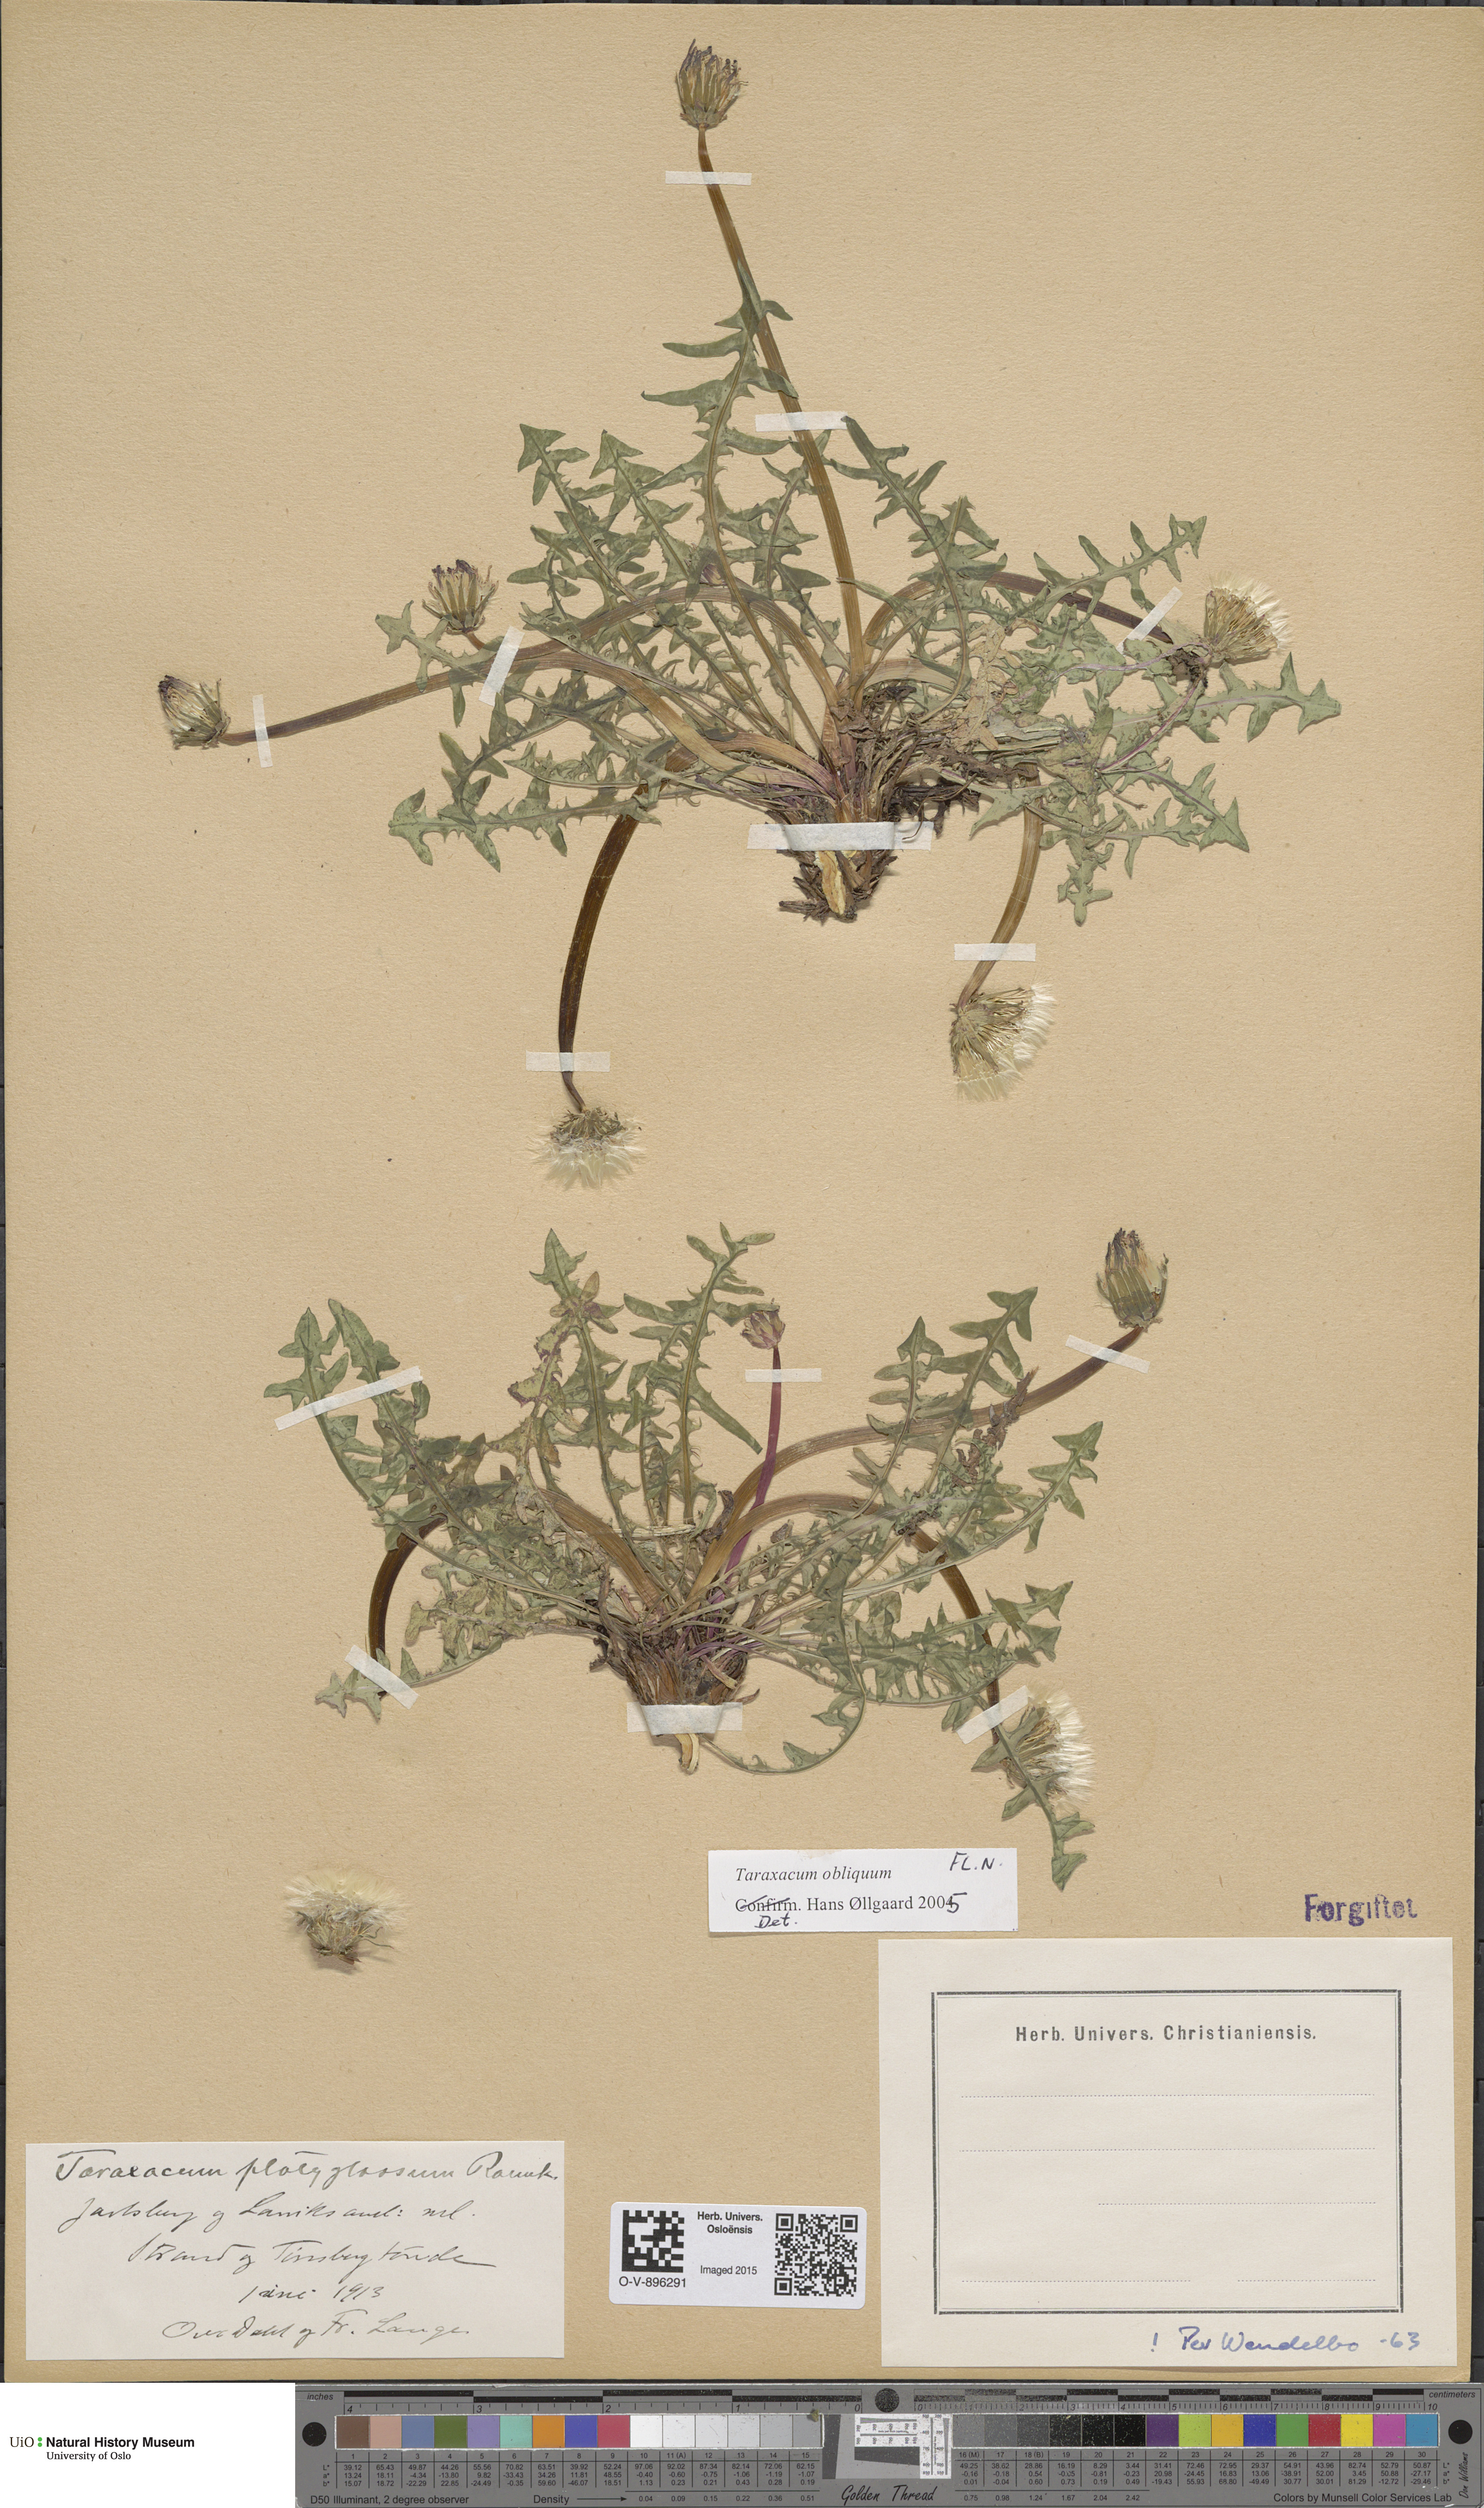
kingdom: Plantae
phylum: Tracheophyta
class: Magnoliopsida
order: Asterales
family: Asteraceae
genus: Taraxacum
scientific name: Taraxacum obliquum
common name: Many-lobed dandelion
